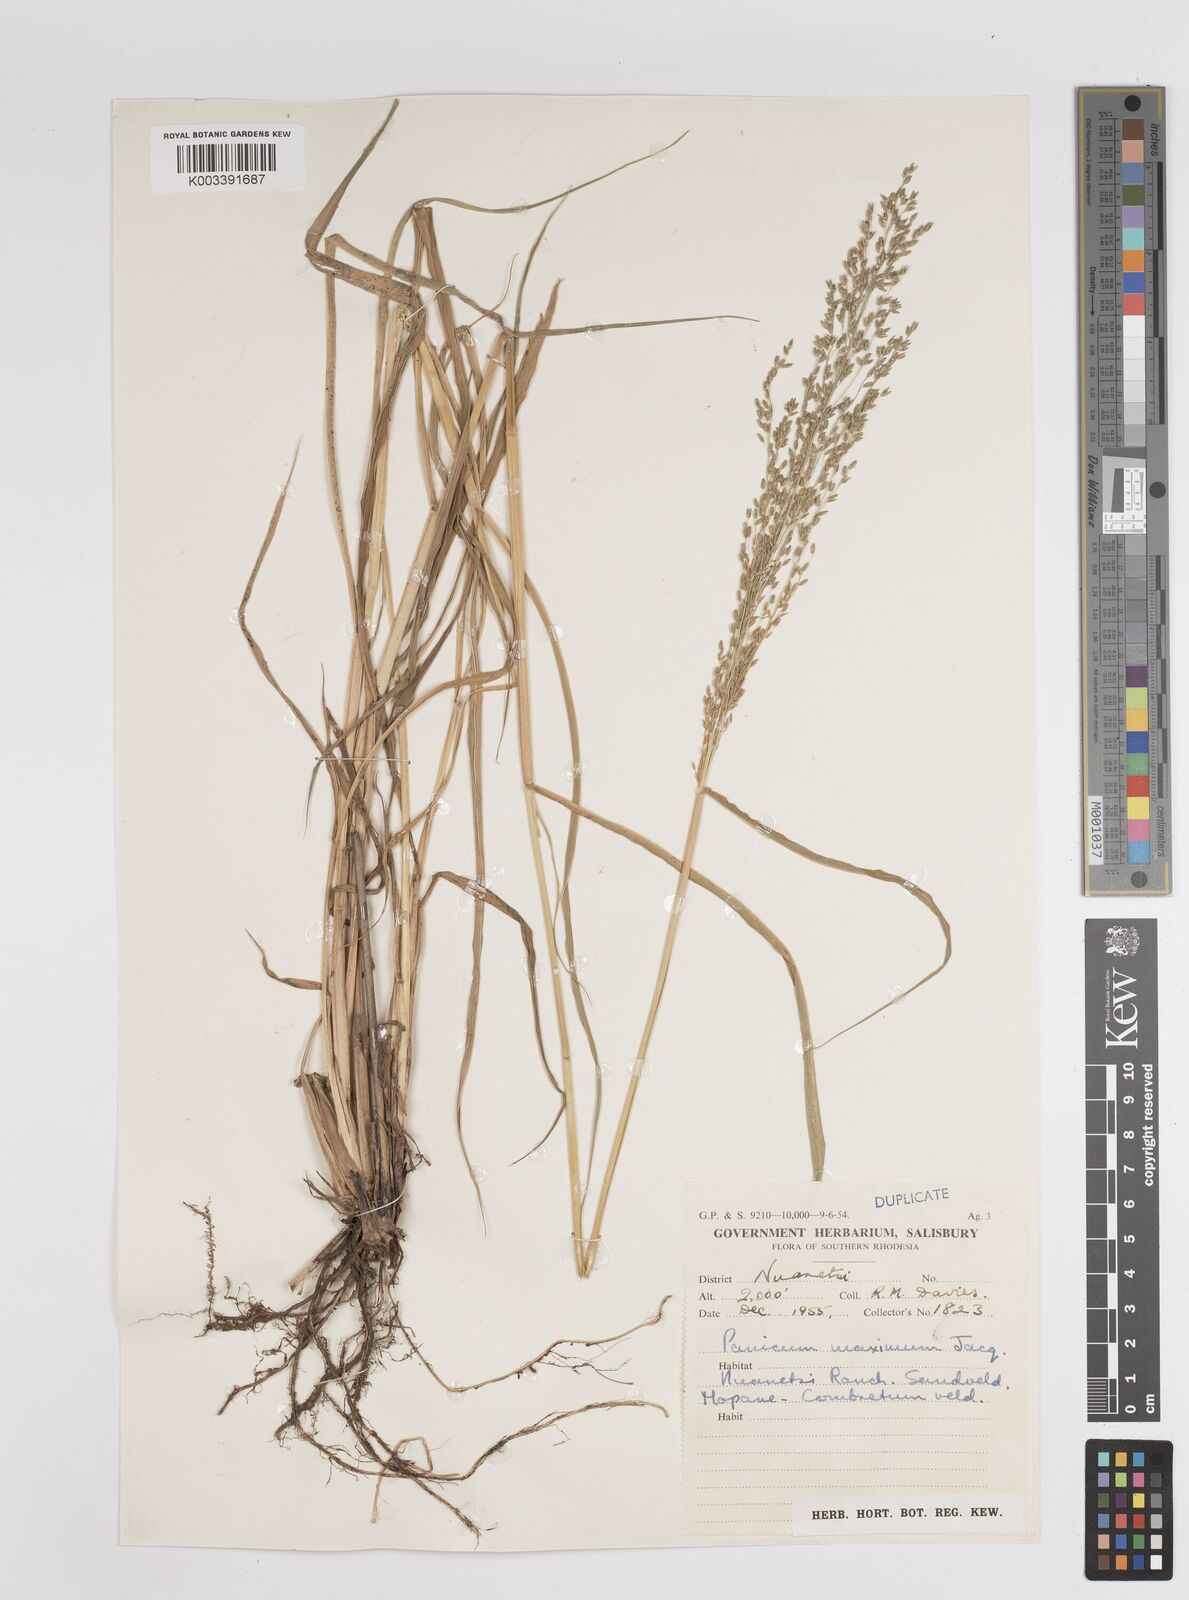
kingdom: Plantae
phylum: Tracheophyta
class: Liliopsida
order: Poales
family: Poaceae
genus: Megathyrsus
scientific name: Megathyrsus maximus
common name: Guineagrass
